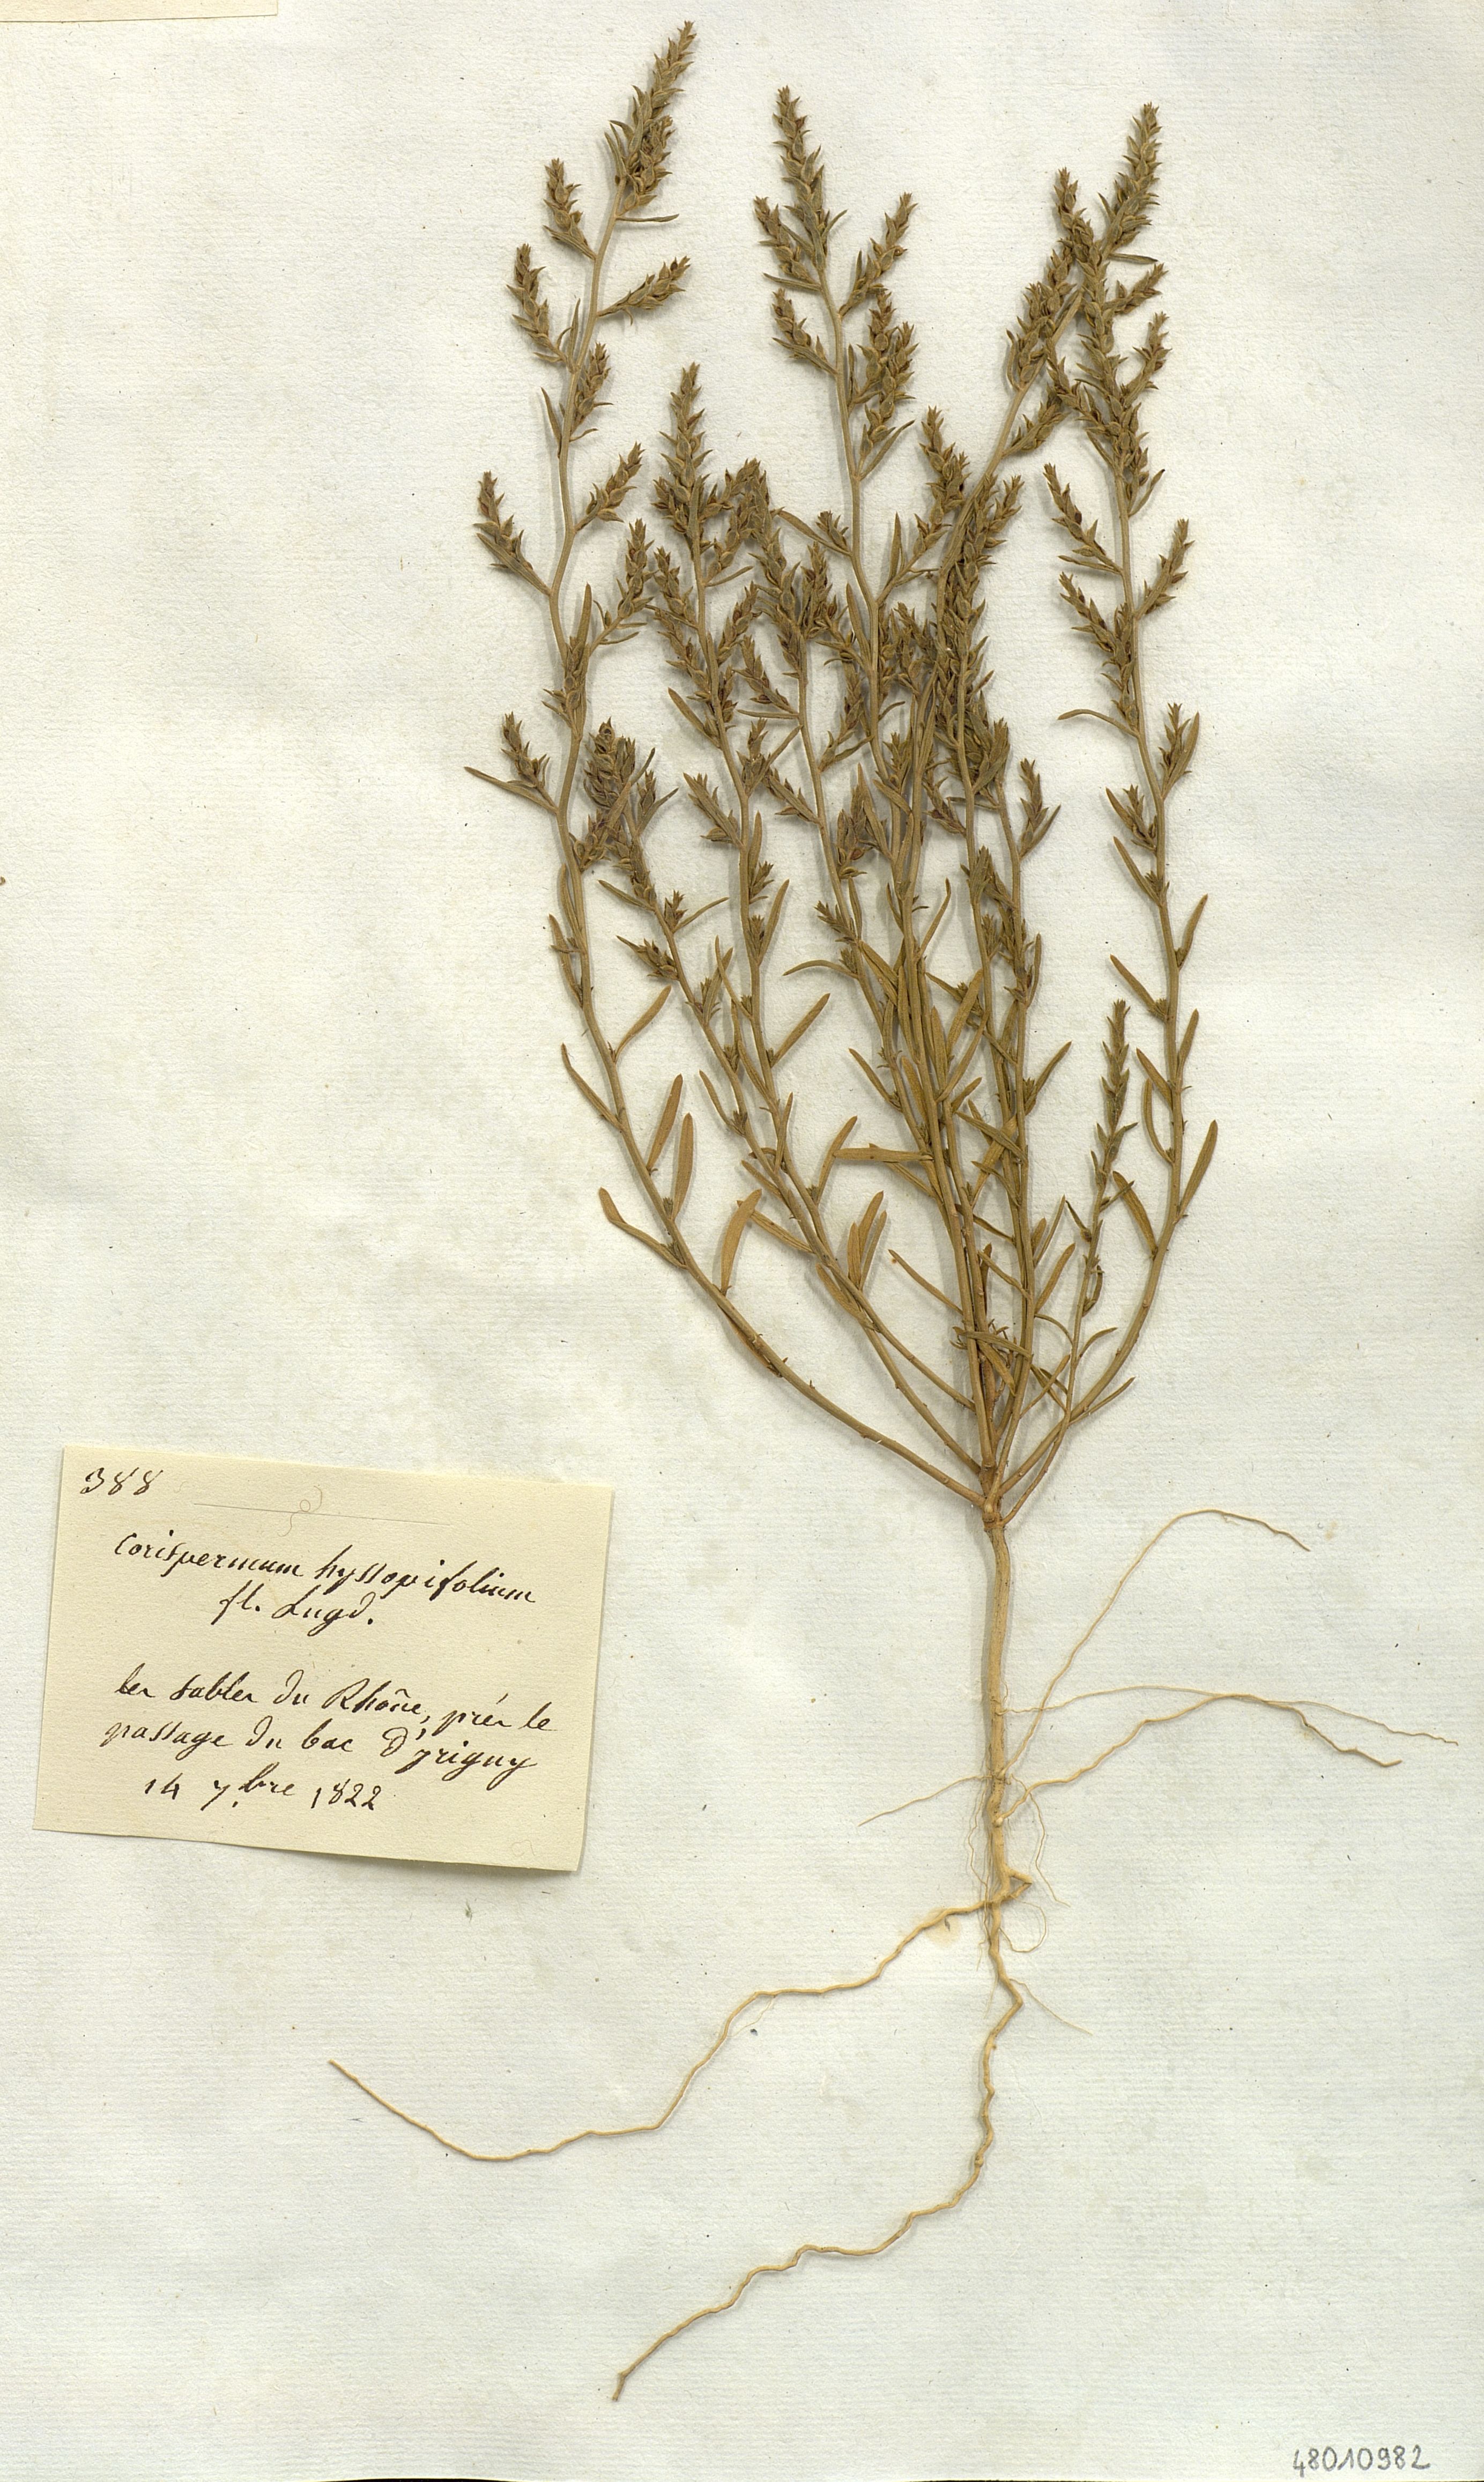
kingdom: Plantae
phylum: Tracheophyta
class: Magnoliopsida
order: Caryophyllales
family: Amaranthaceae
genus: Corispermum
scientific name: Corispermum hyssopifolium
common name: Bugseed
